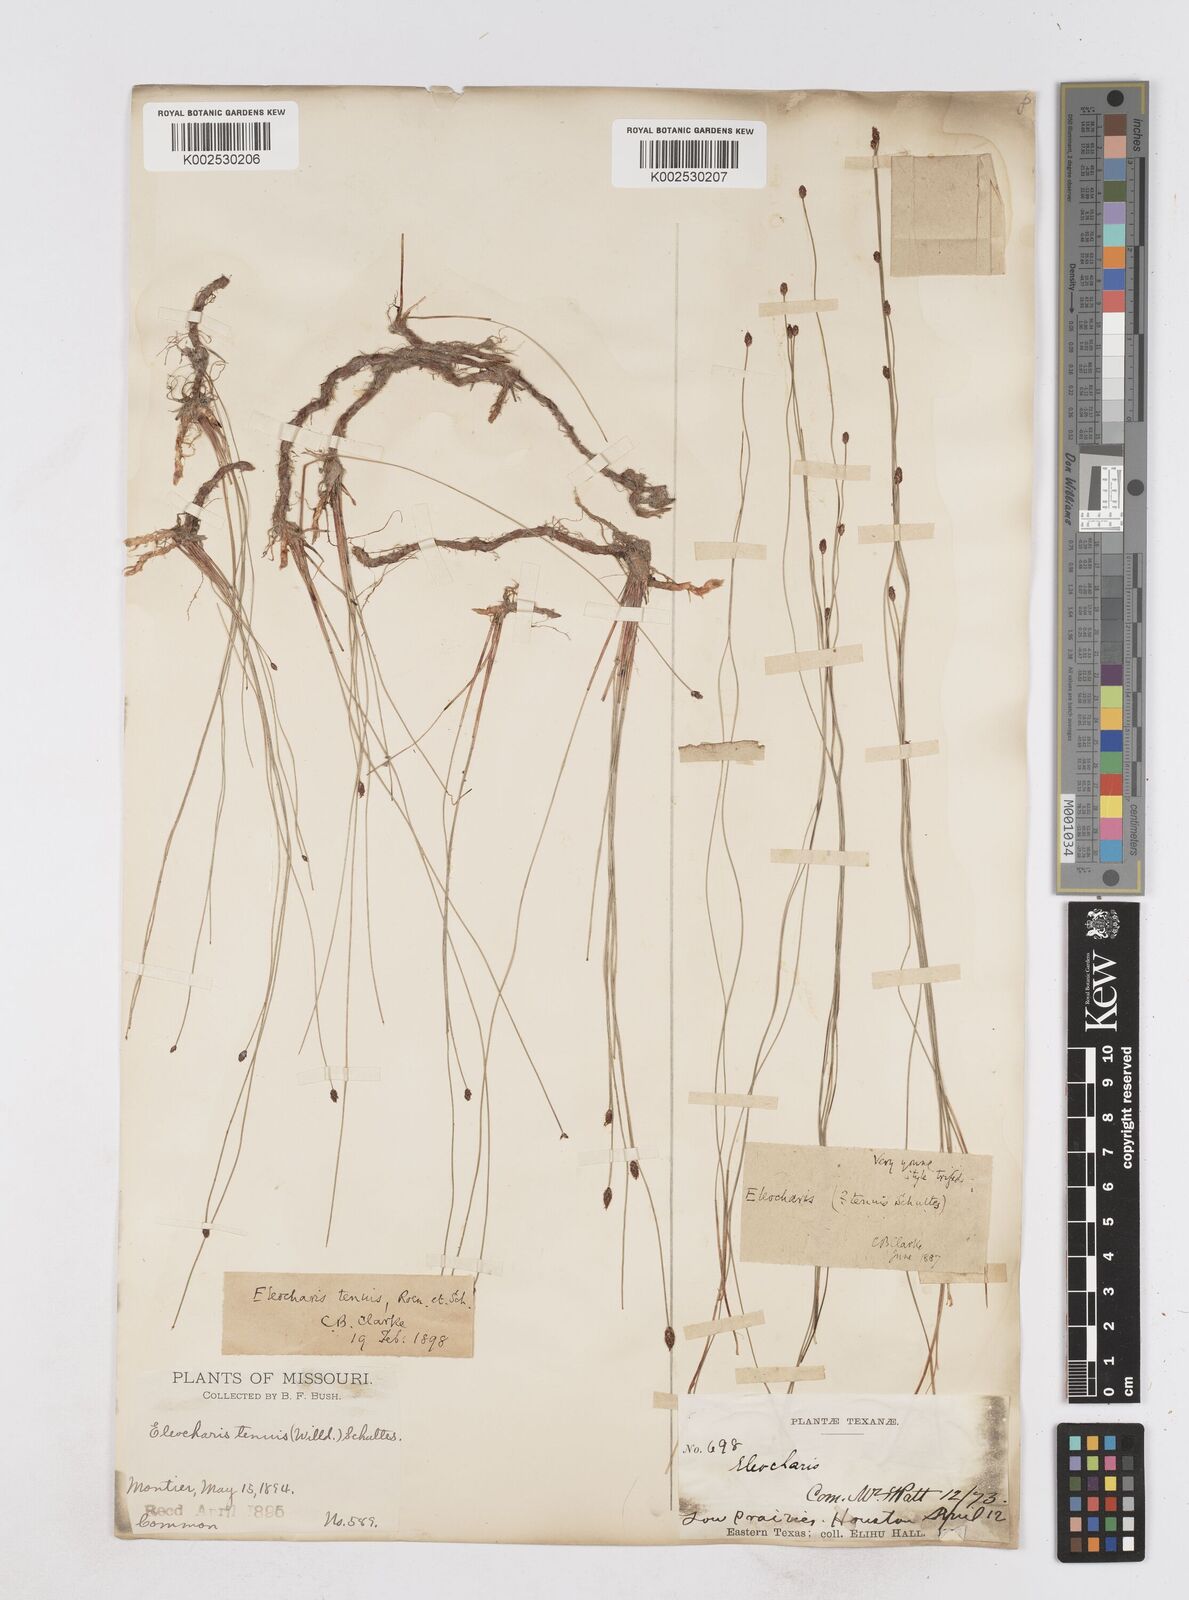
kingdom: Plantae
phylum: Tracheophyta
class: Liliopsida
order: Poales
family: Cyperaceae
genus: Eleocharis
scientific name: Eleocharis tenuis
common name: Dog's hair
